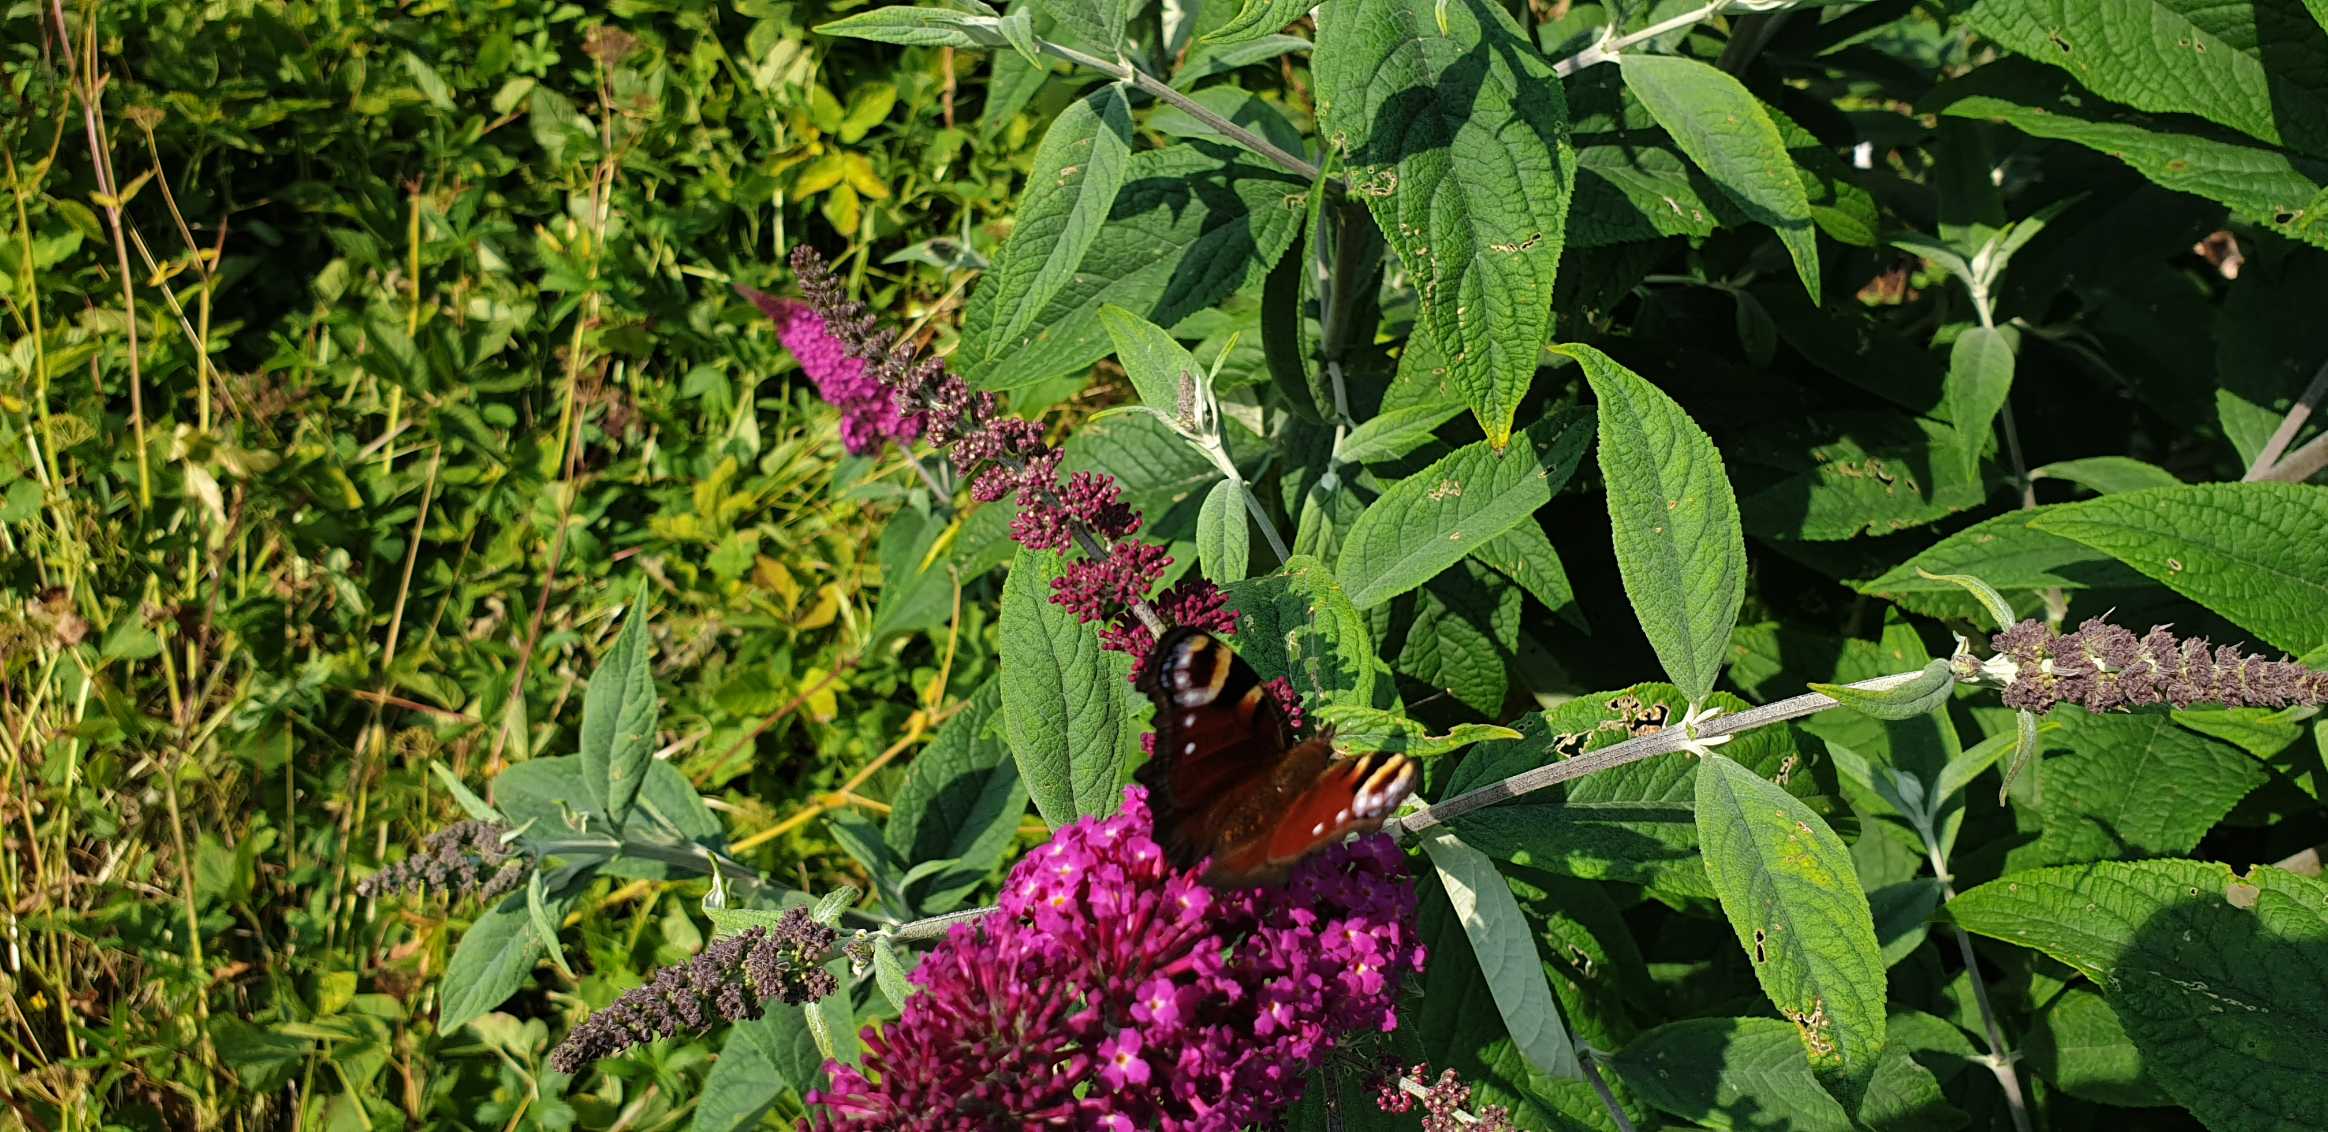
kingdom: Animalia
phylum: Arthropoda
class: Insecta
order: Lepidoptera
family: Nymphalidae
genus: Aglais
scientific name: Aglais io
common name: Dagpåfugleøje
